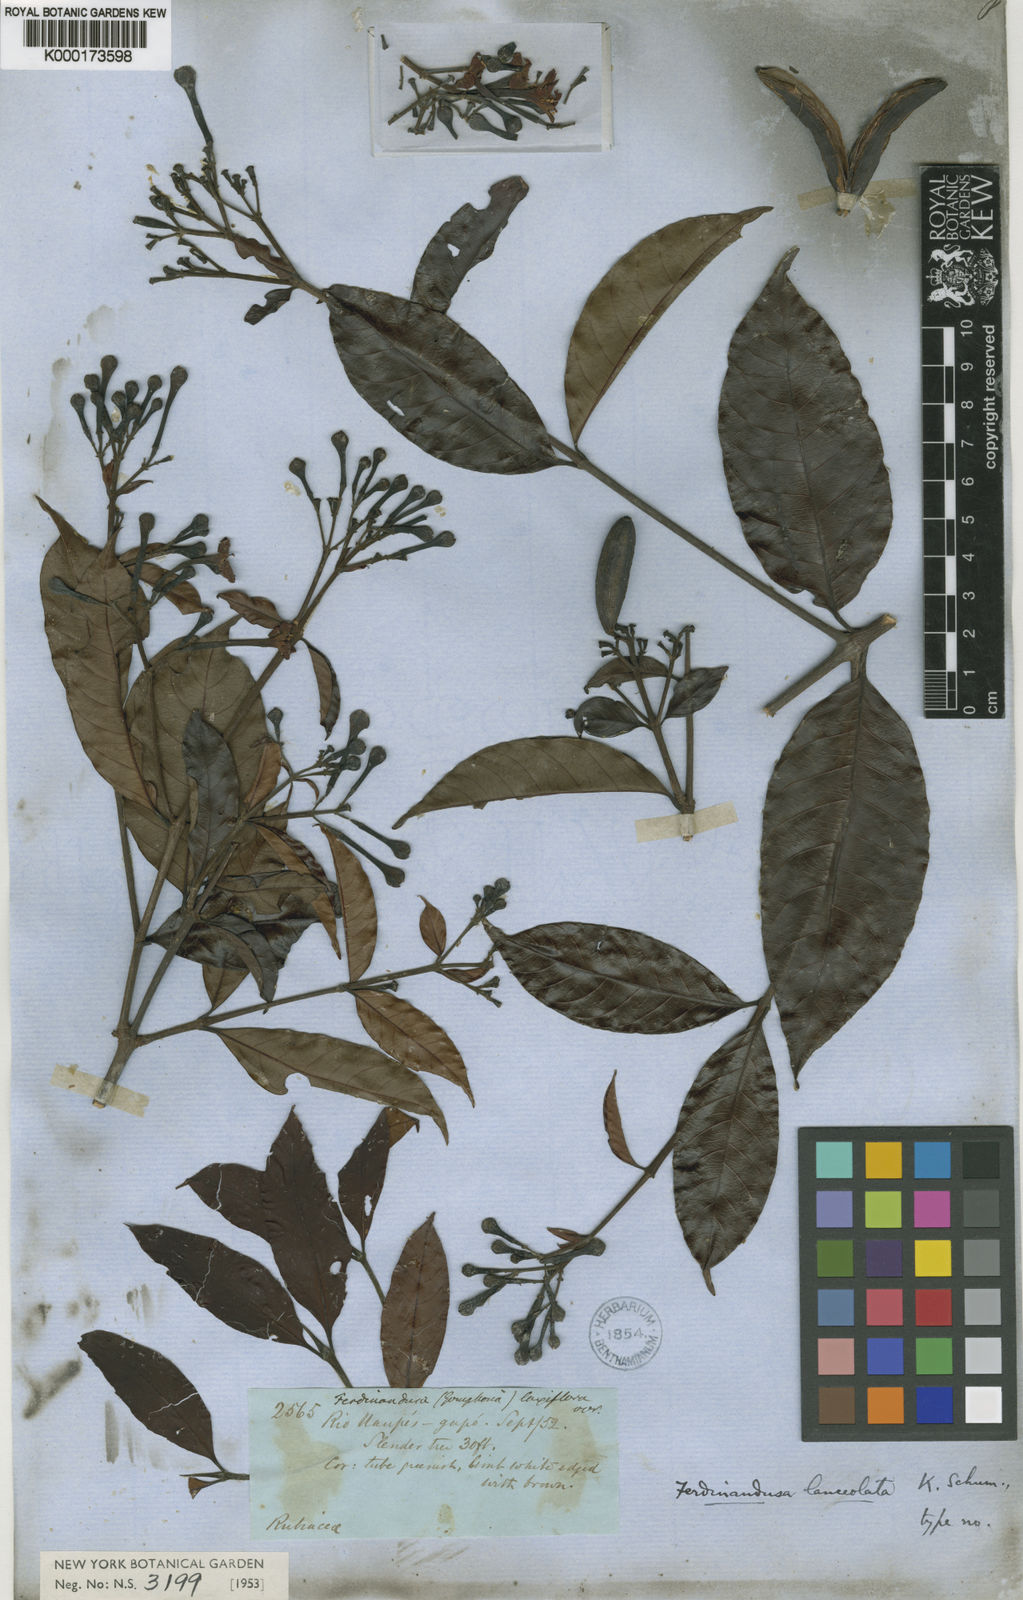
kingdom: Plantae
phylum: Tracheophyta
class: Magnoliopsida
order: Gentianales
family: Rubiaceae
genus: Ferdinandusa
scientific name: Ferdinandusa lanceolata
